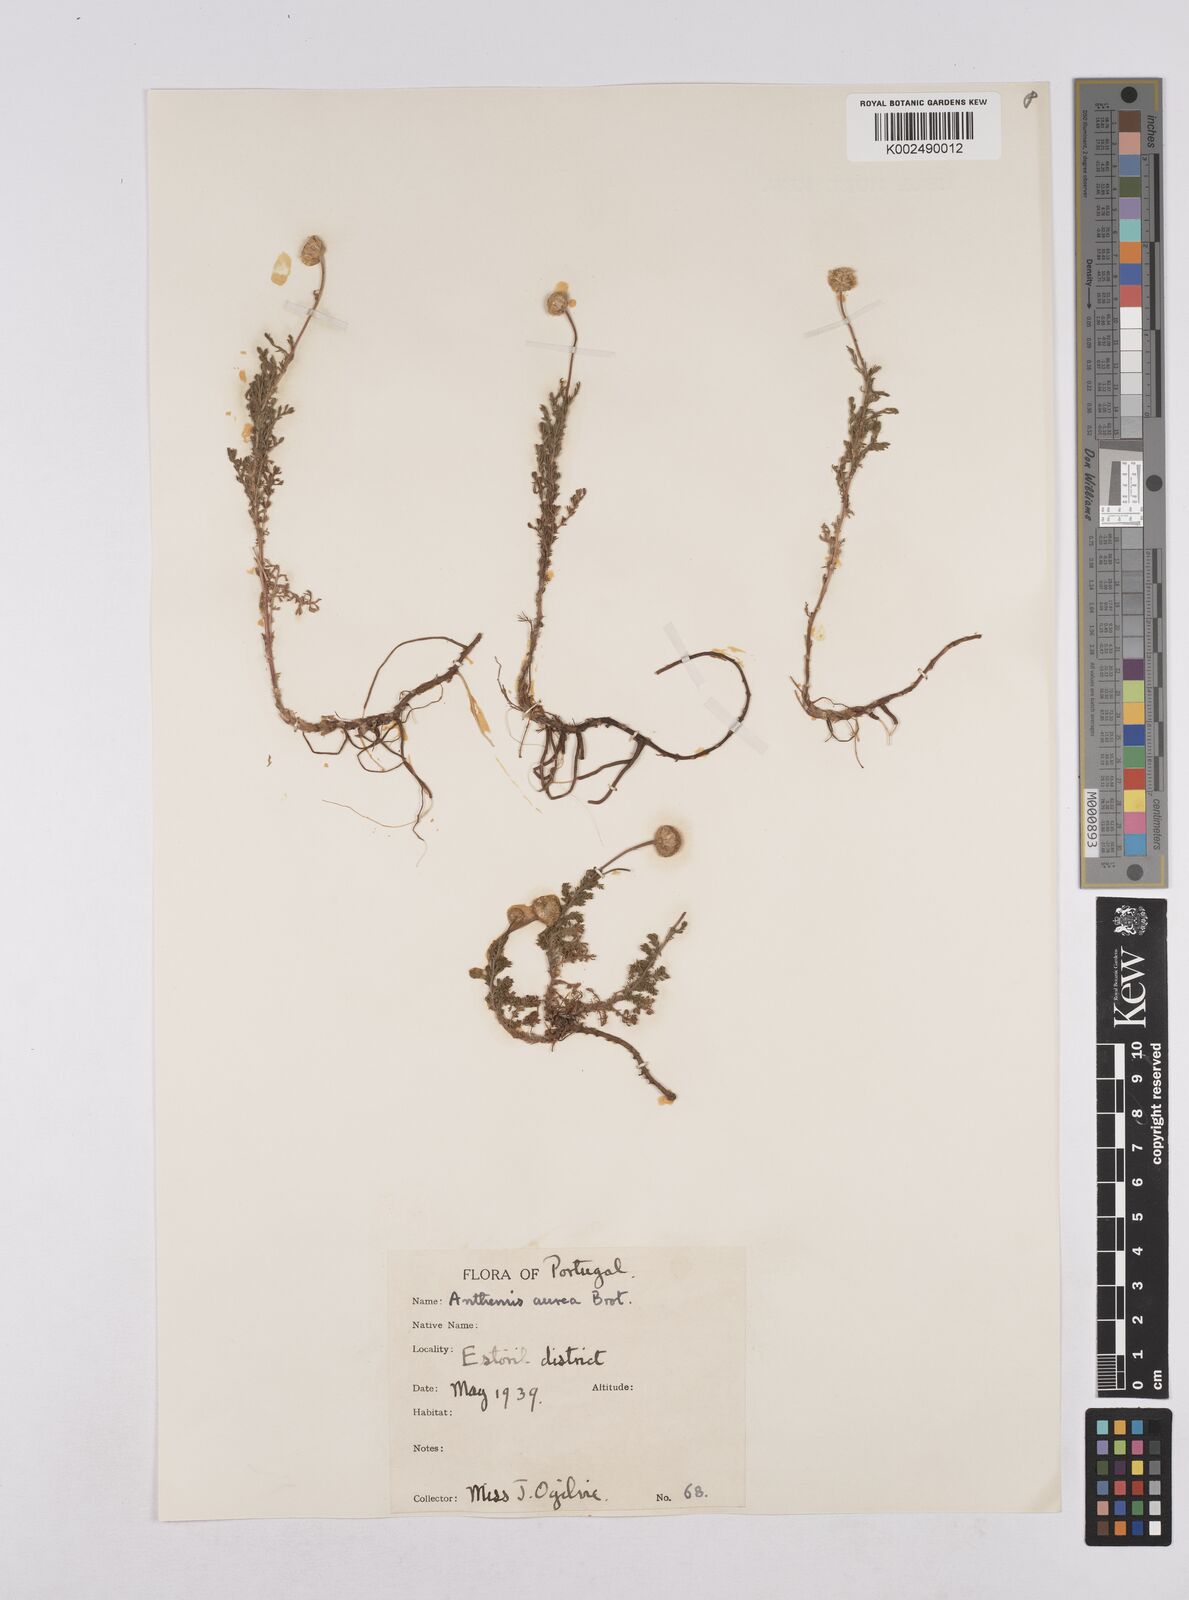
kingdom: Plantae
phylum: Tracheophyta
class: Magnoliopsida
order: Asterales
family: Asteraceae
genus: Matricaria
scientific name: Matricaria aurea
